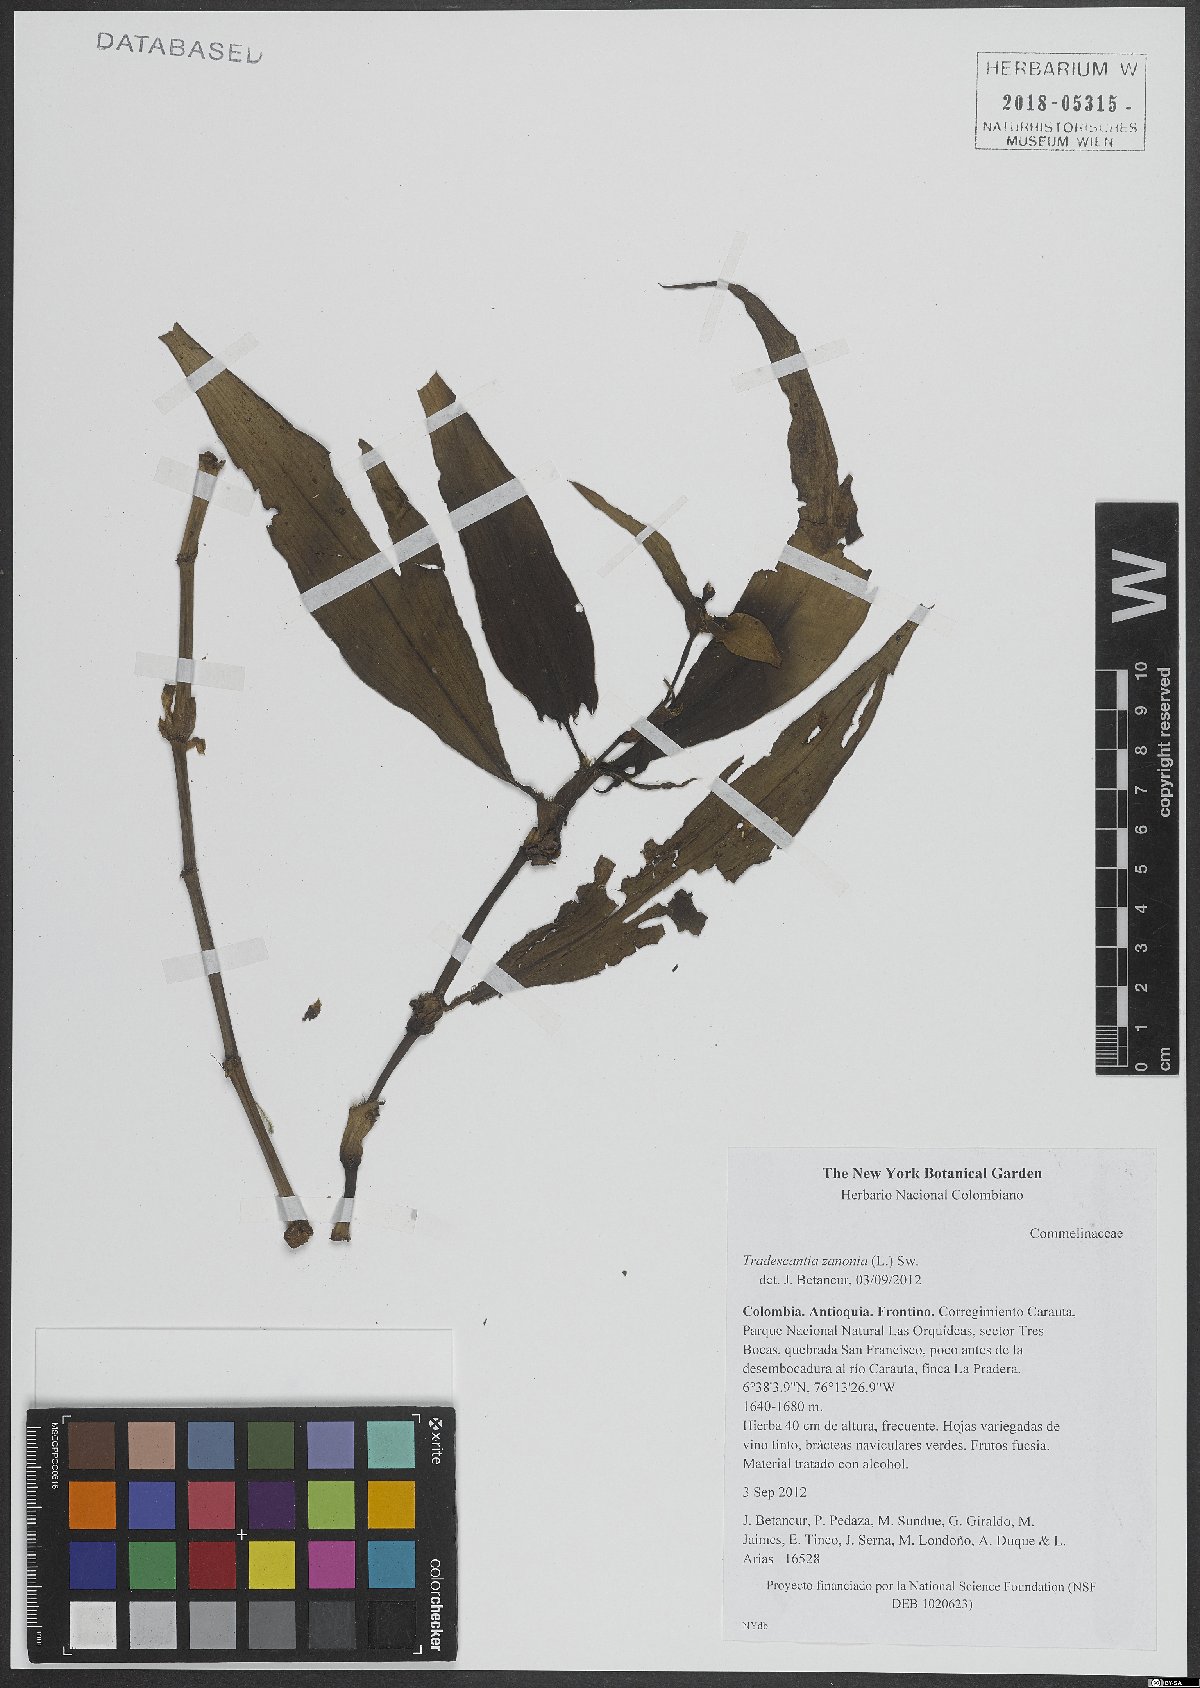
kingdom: Plantae
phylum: Tracheophyta
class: Liliopsida
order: Commelinales
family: Commelinaceae
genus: Tradescantia
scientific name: Tradescantia zanonia
